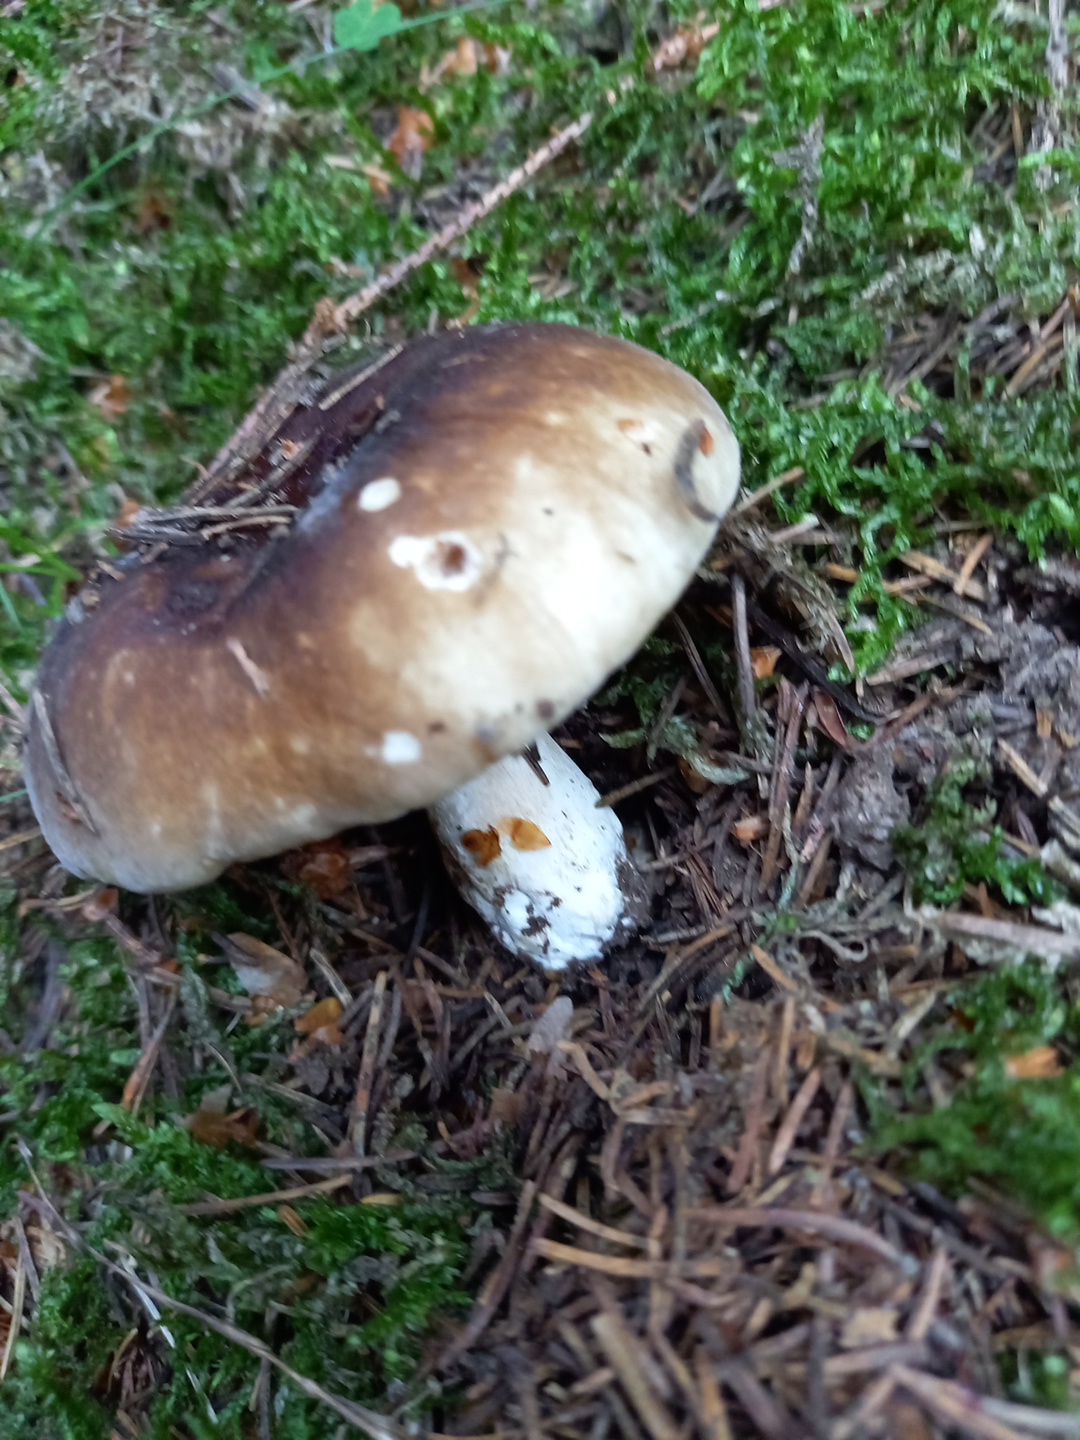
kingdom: Fungi
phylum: Basidiomycota
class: Agaricomycetes
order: Russulales
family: Russulaceae
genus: Russula
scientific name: Russula adusta
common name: sværtende skørhat
